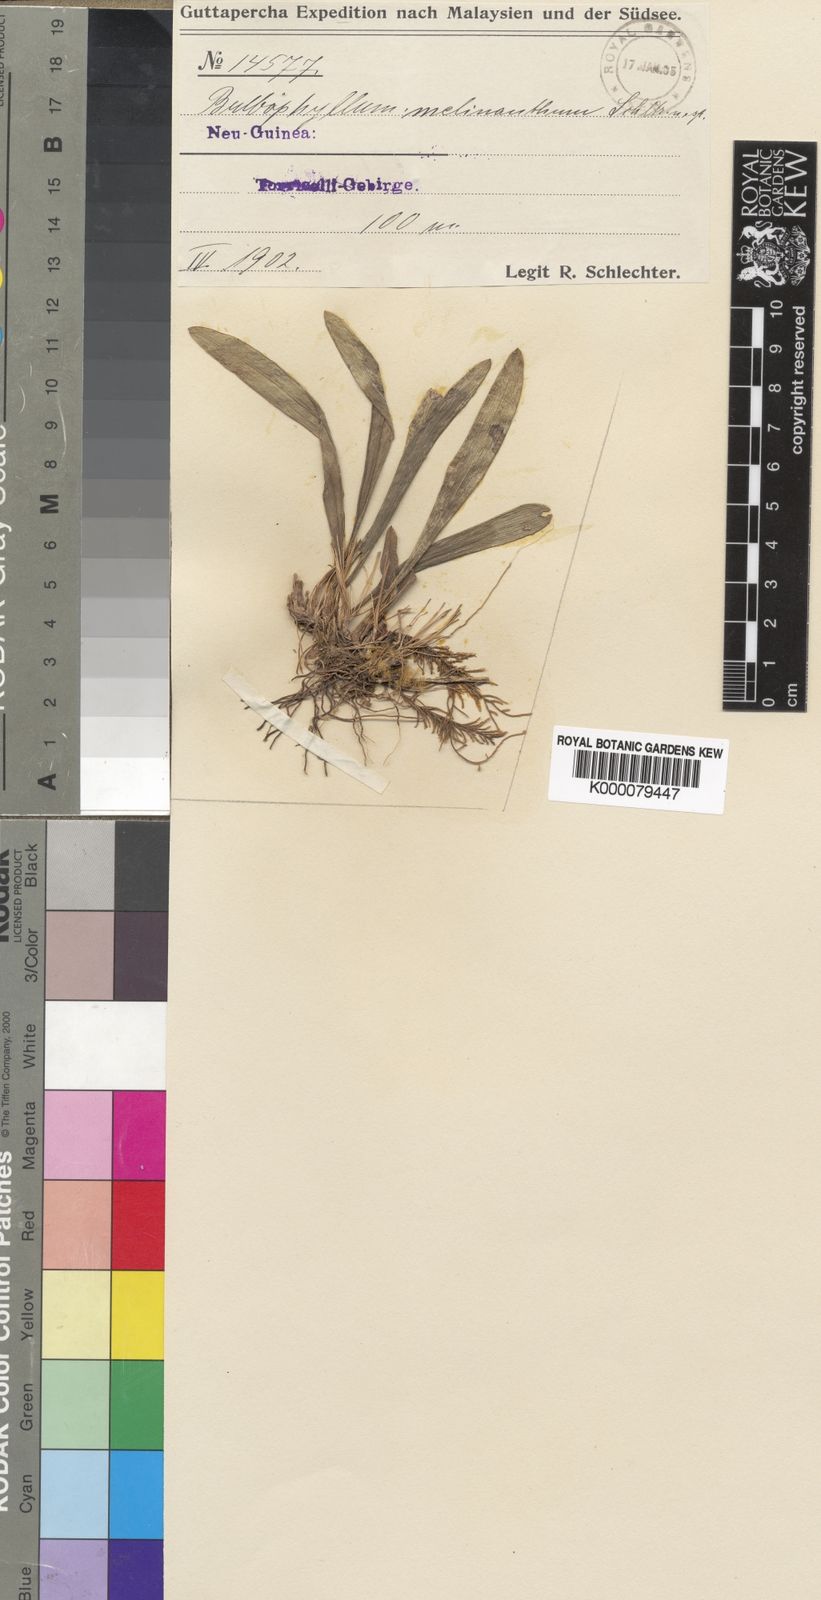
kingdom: Plantae
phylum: Tracheophyta
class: Liliopsida
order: Asparagales
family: Orchidaceae
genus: Bulbophyllum
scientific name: Bulbophyllum melinanthum
